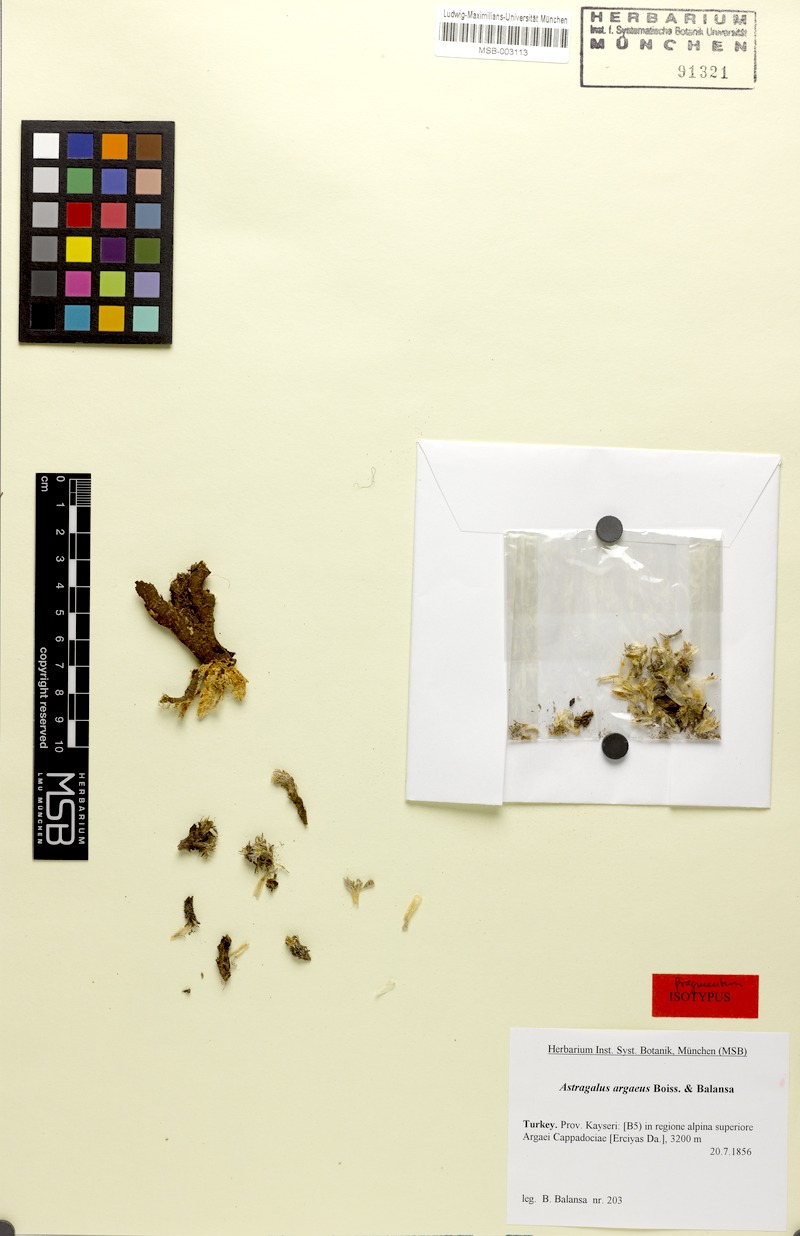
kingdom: Plantae
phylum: Tracheophyta
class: Magnoliopsida
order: Fabales
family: Fabaceae
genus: Astragalus
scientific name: Astragalus auganus
